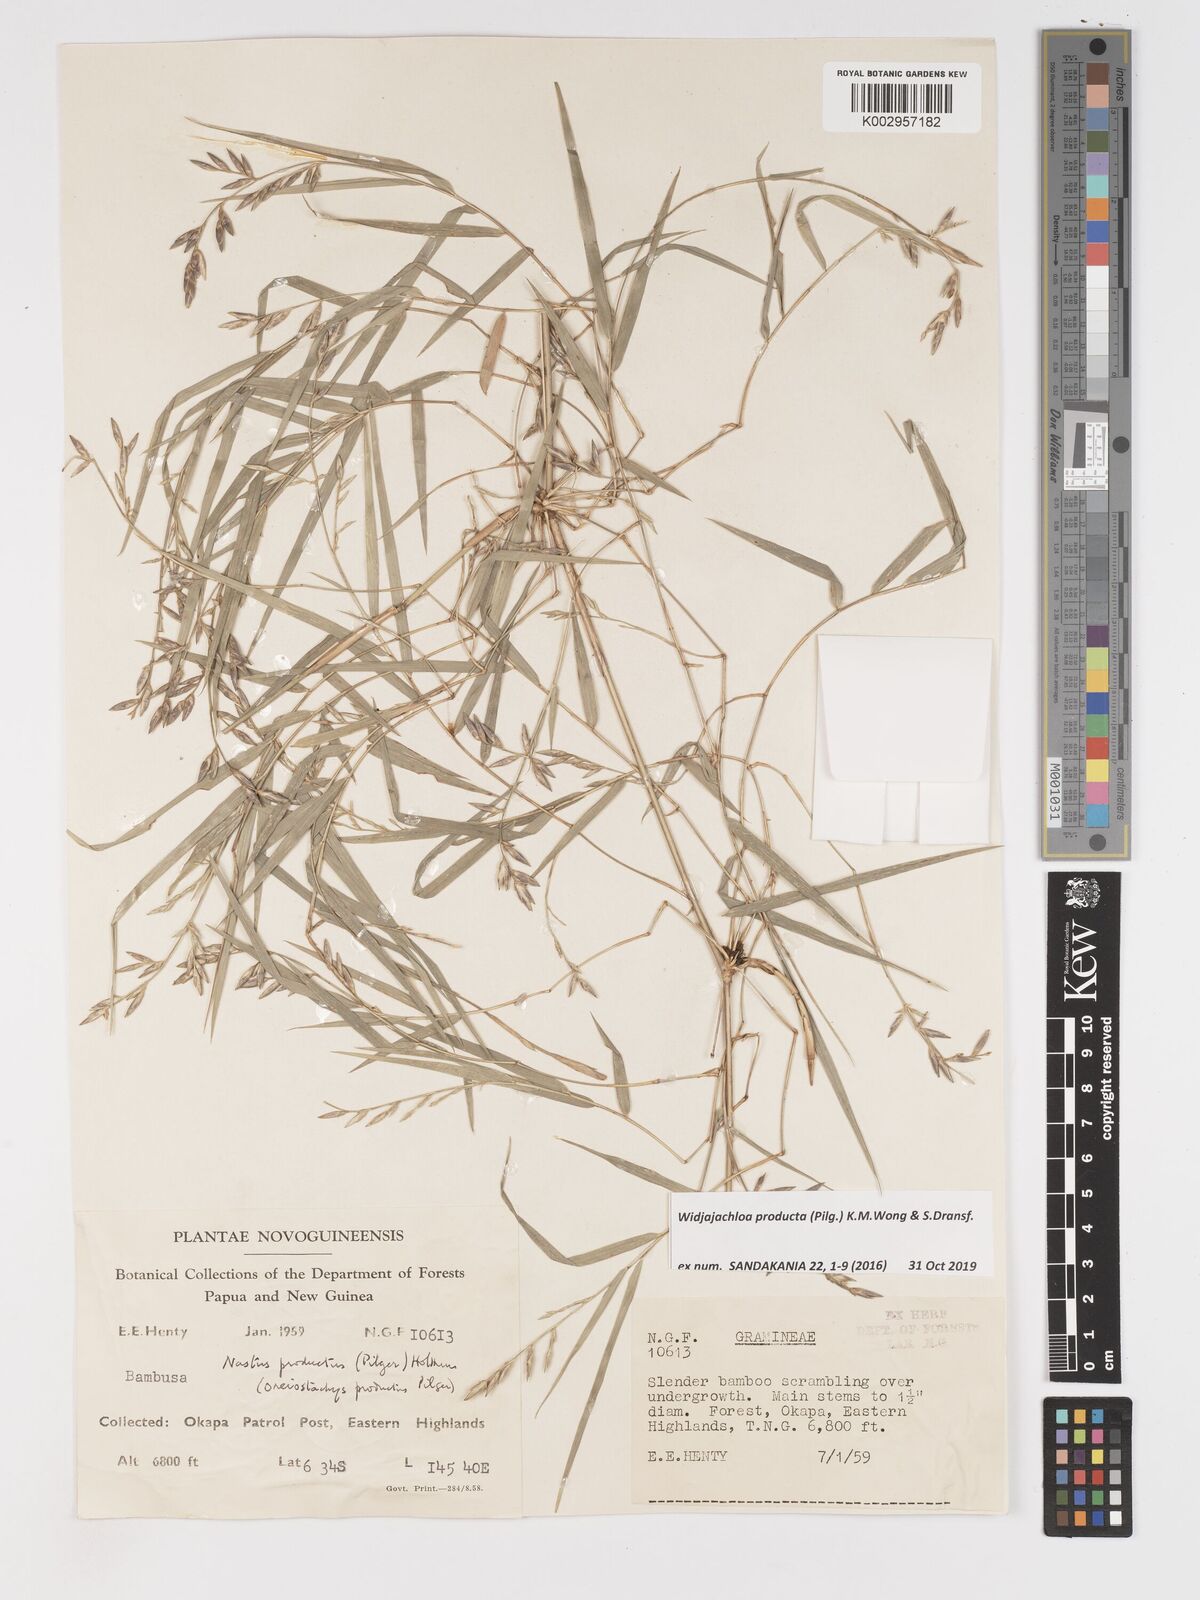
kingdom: Plantae
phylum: Tracheophyta
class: Liliopsida
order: Poales
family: Poaceae
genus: Widjajachloa
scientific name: Widjajachloa producta
